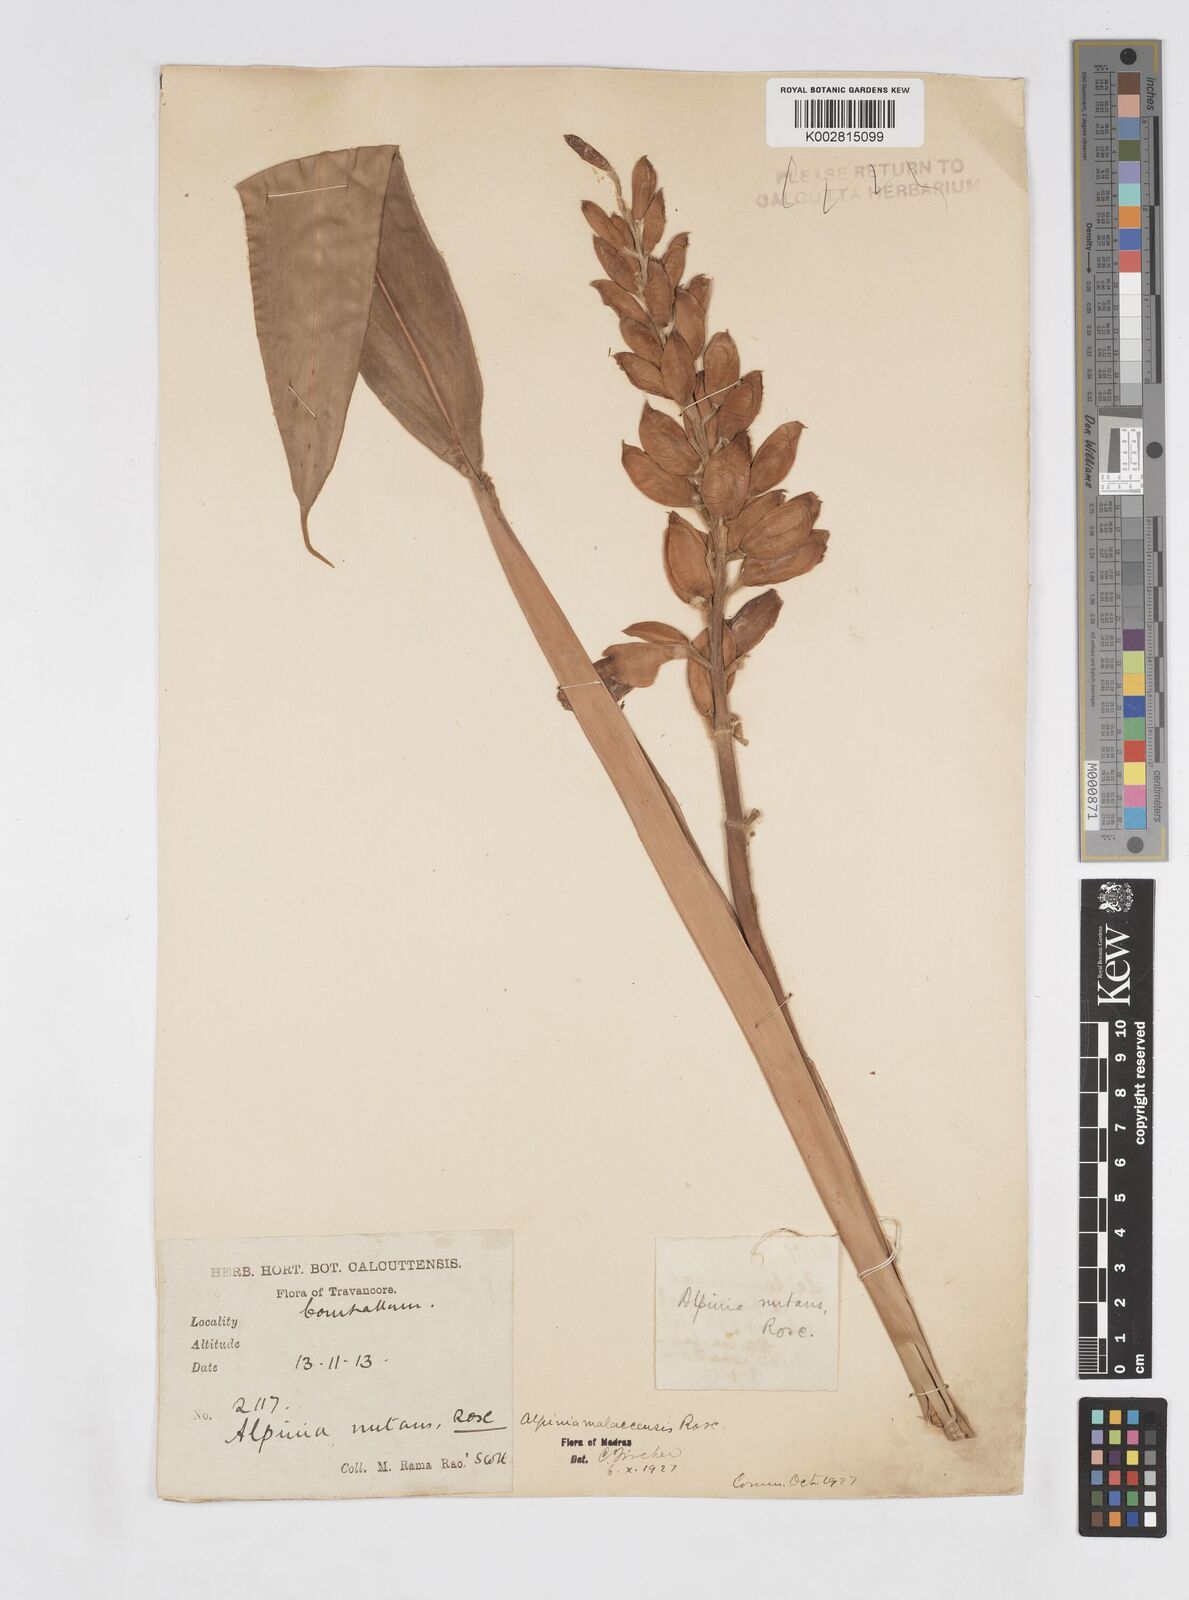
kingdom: Plantae
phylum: Tracheophyta
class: Liliopsida
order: Zingiberales
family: Zingiberaceae
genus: Alpinia
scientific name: Alpinia malaccensis
